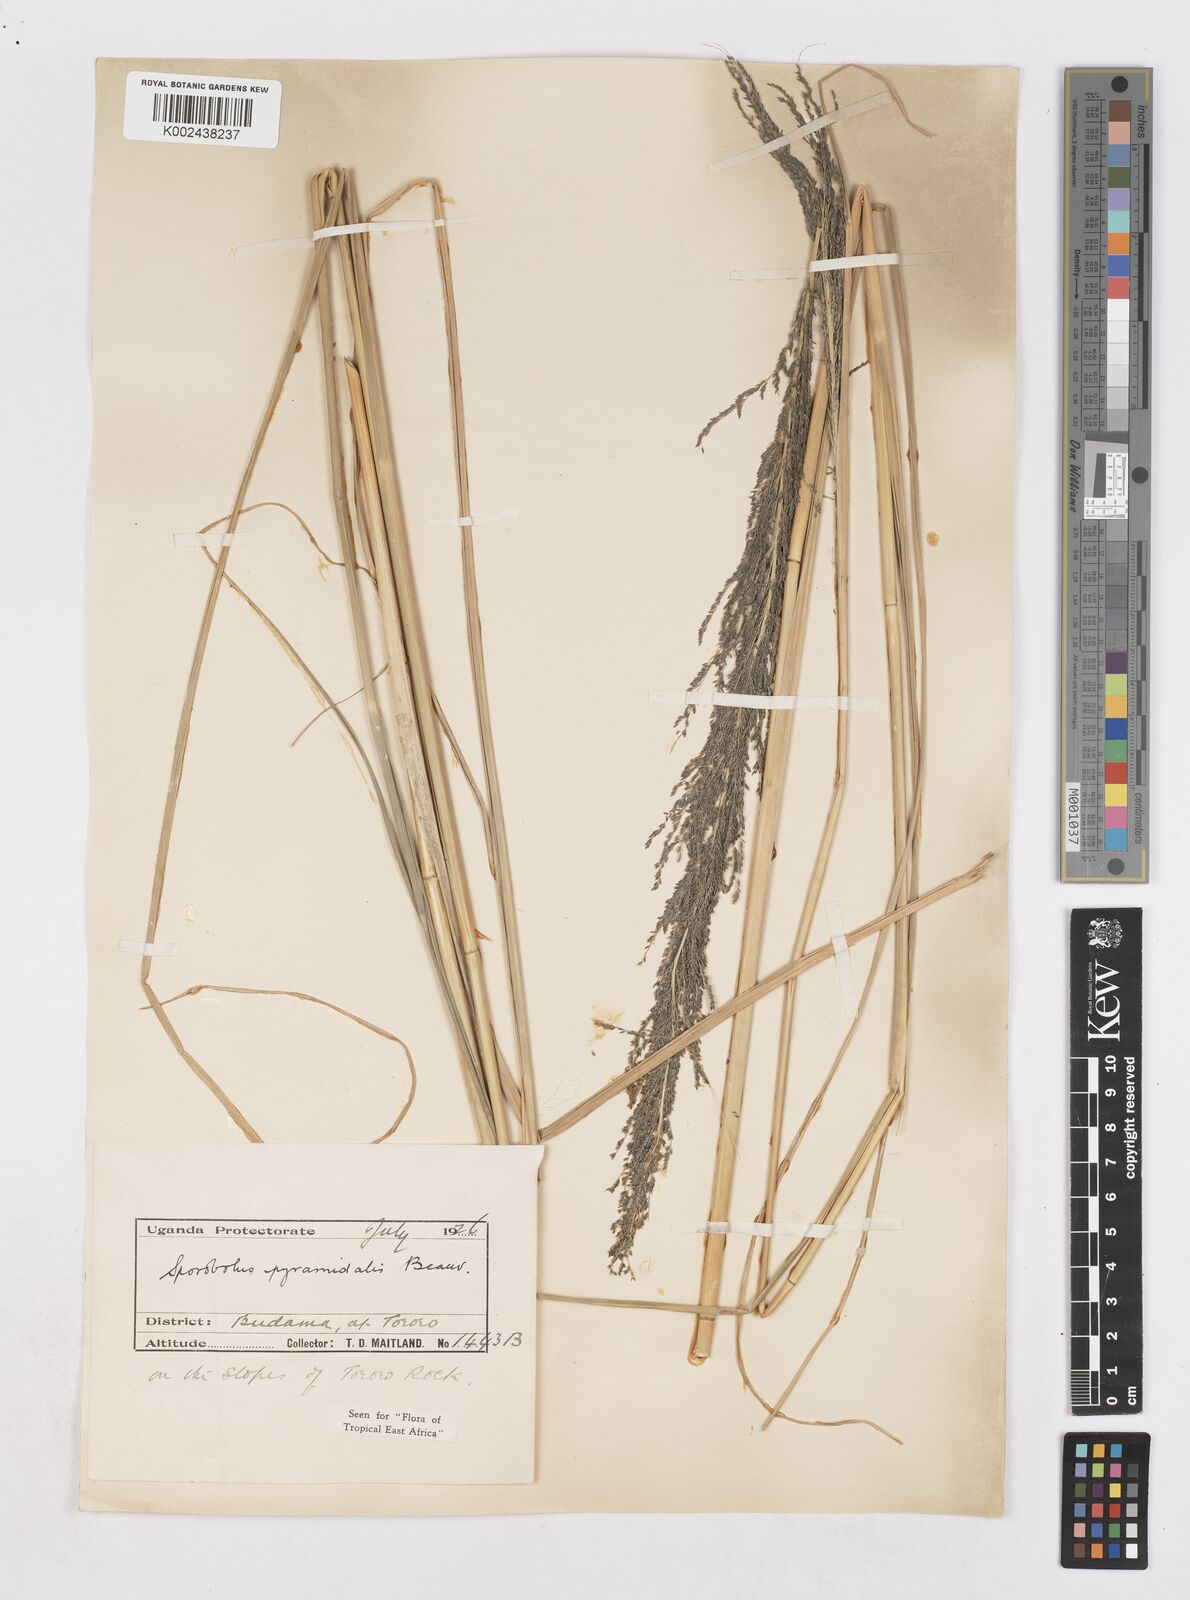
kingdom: Plantae
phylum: Tracheophyta
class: Liliopsida
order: Poales
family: Poaceae
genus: Sporobolus
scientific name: Sporobolus pyramidalis
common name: West indian dropseed
